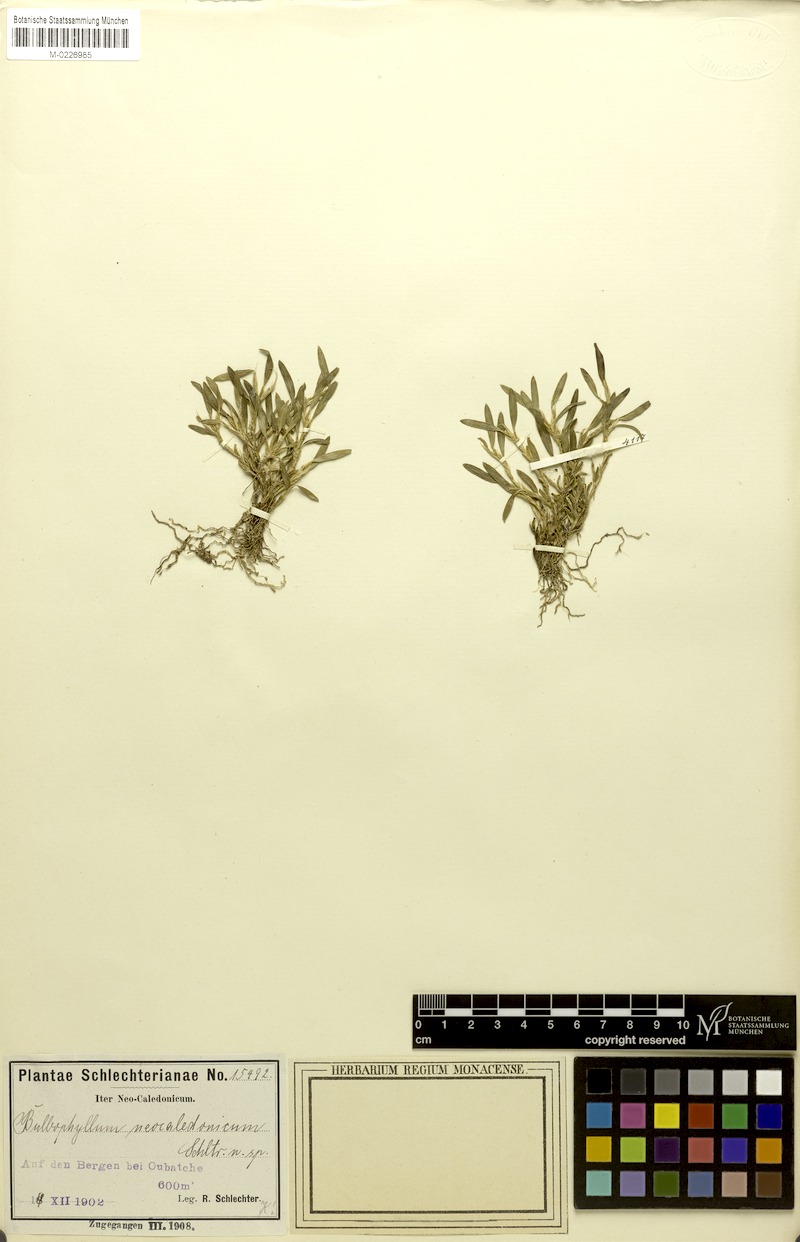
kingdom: Plantae
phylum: Tracheophyta
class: Liliopsida
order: Asparagales
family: Orchidaceae
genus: Bulbophyllum
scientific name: Bulbophyllum absconditum
